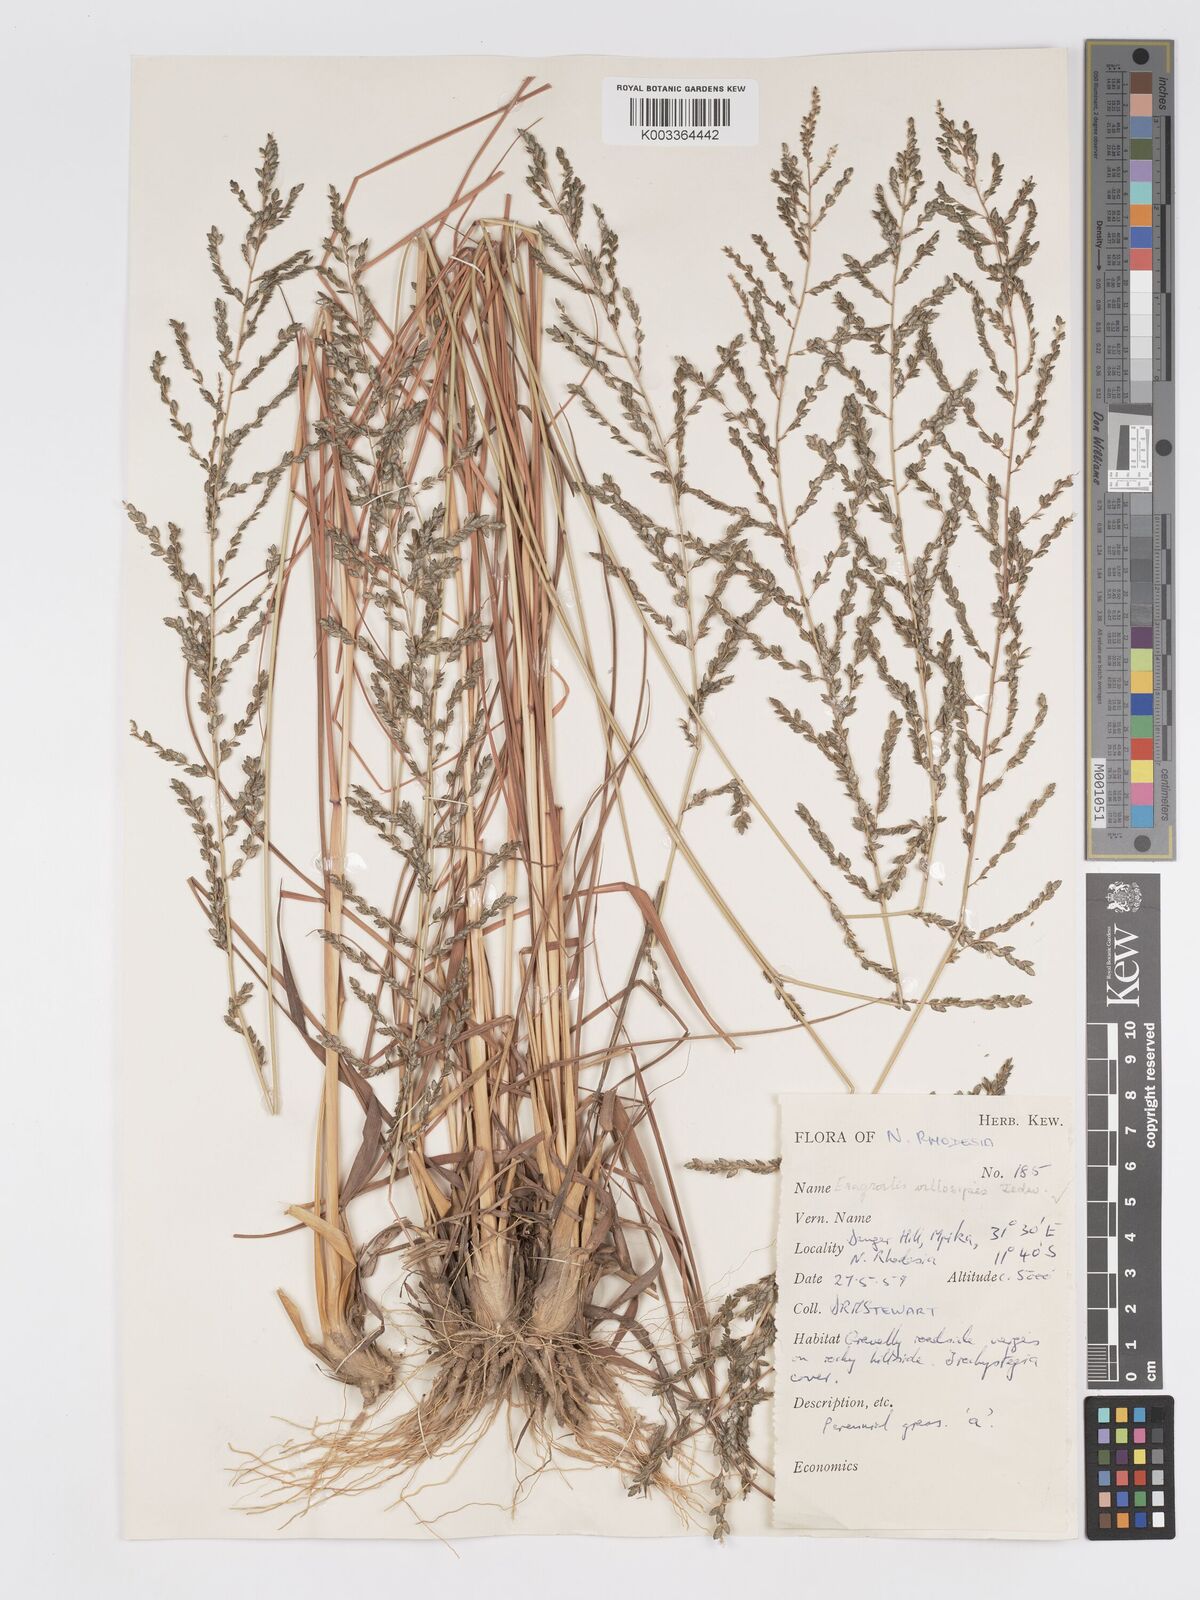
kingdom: Plantae
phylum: Tracheophyta
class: Liliopsida
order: Poales
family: Poaceae
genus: Eragrostis
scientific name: Eragrostis sclerantha
